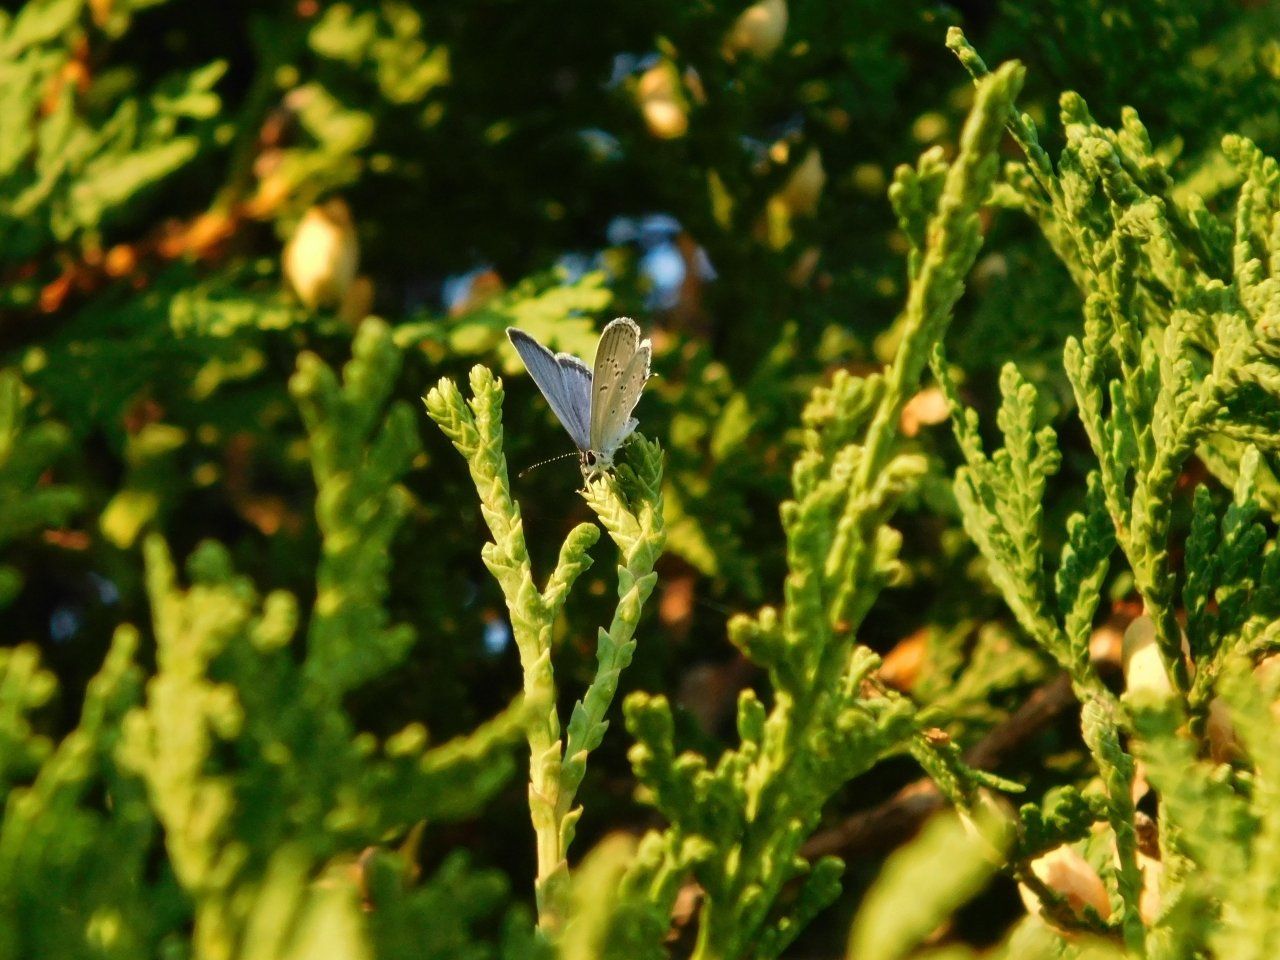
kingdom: Animalia
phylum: Arthropoda
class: Insecta
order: Lepidoptera
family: Lycaenidae
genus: Elkalyce
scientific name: Elkalyce comyntas
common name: Eastern Tailed-Blue
